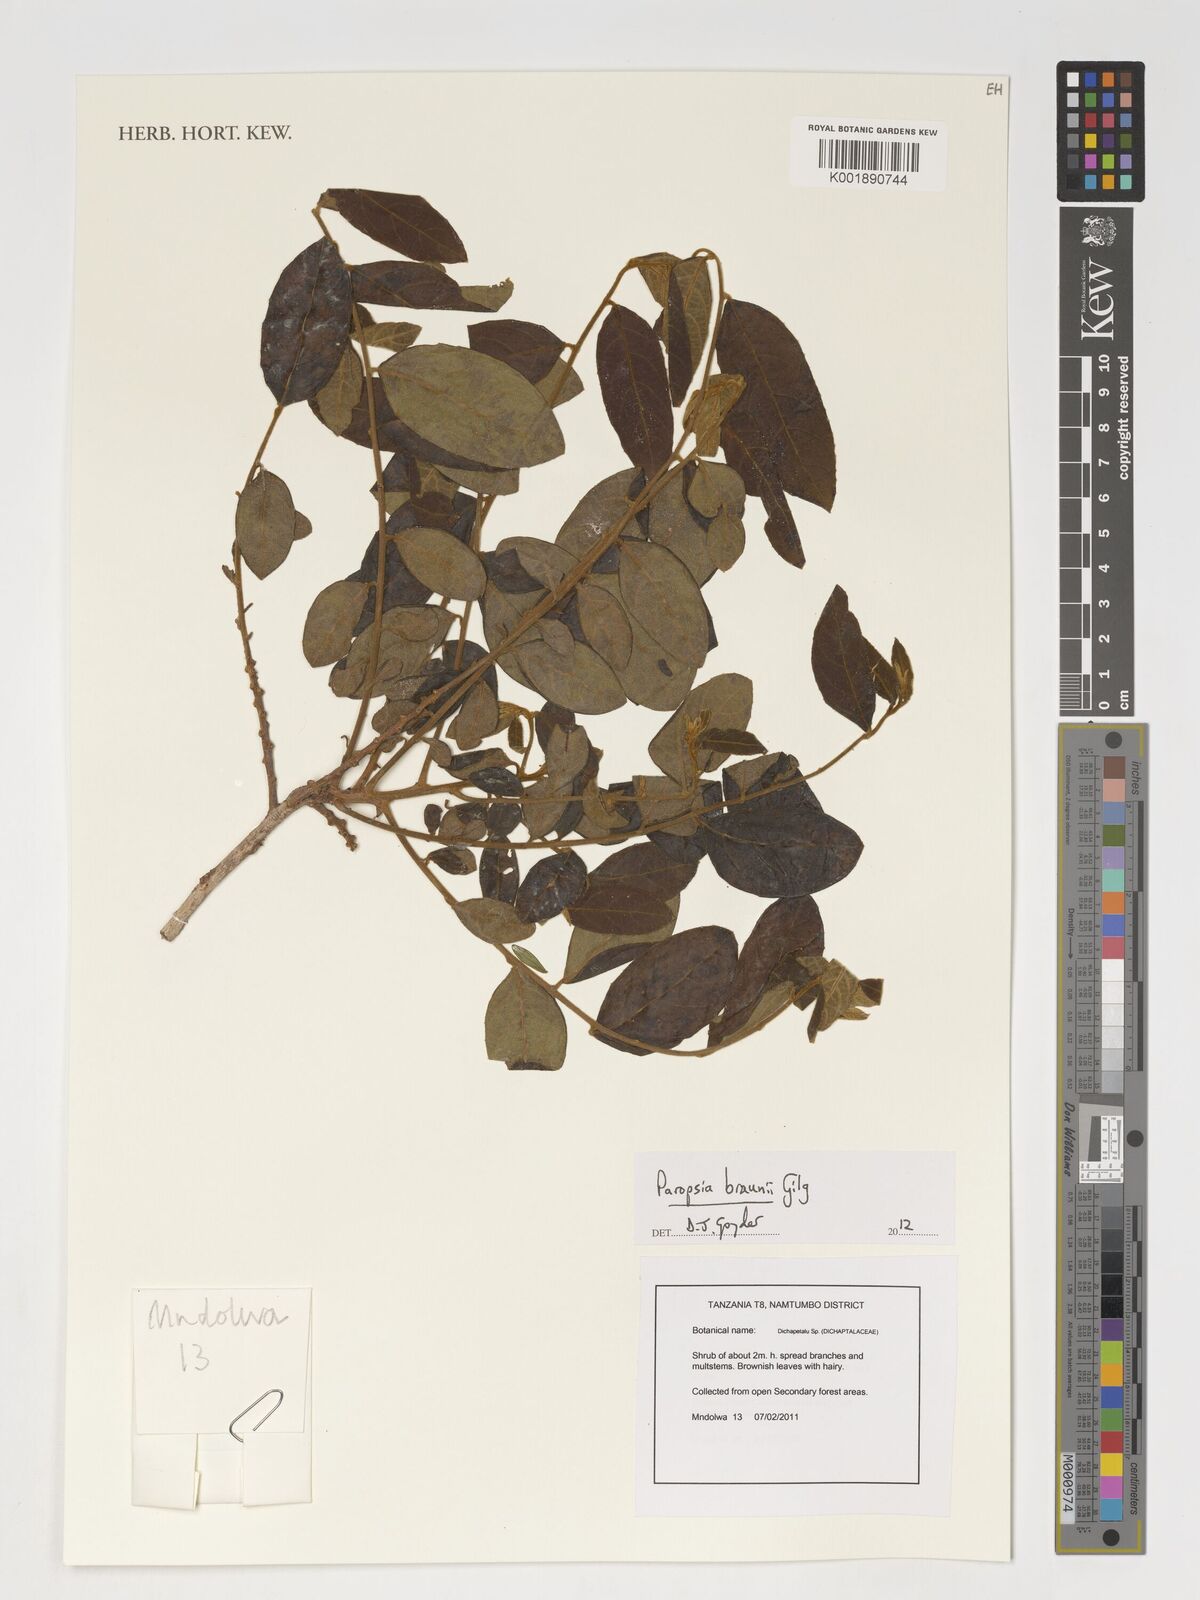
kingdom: Plantae
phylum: Tracheophyta
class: Magnoliopsida
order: Malpighiales
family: Passifloraceae
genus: Paropsia
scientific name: Paropsia braunii
